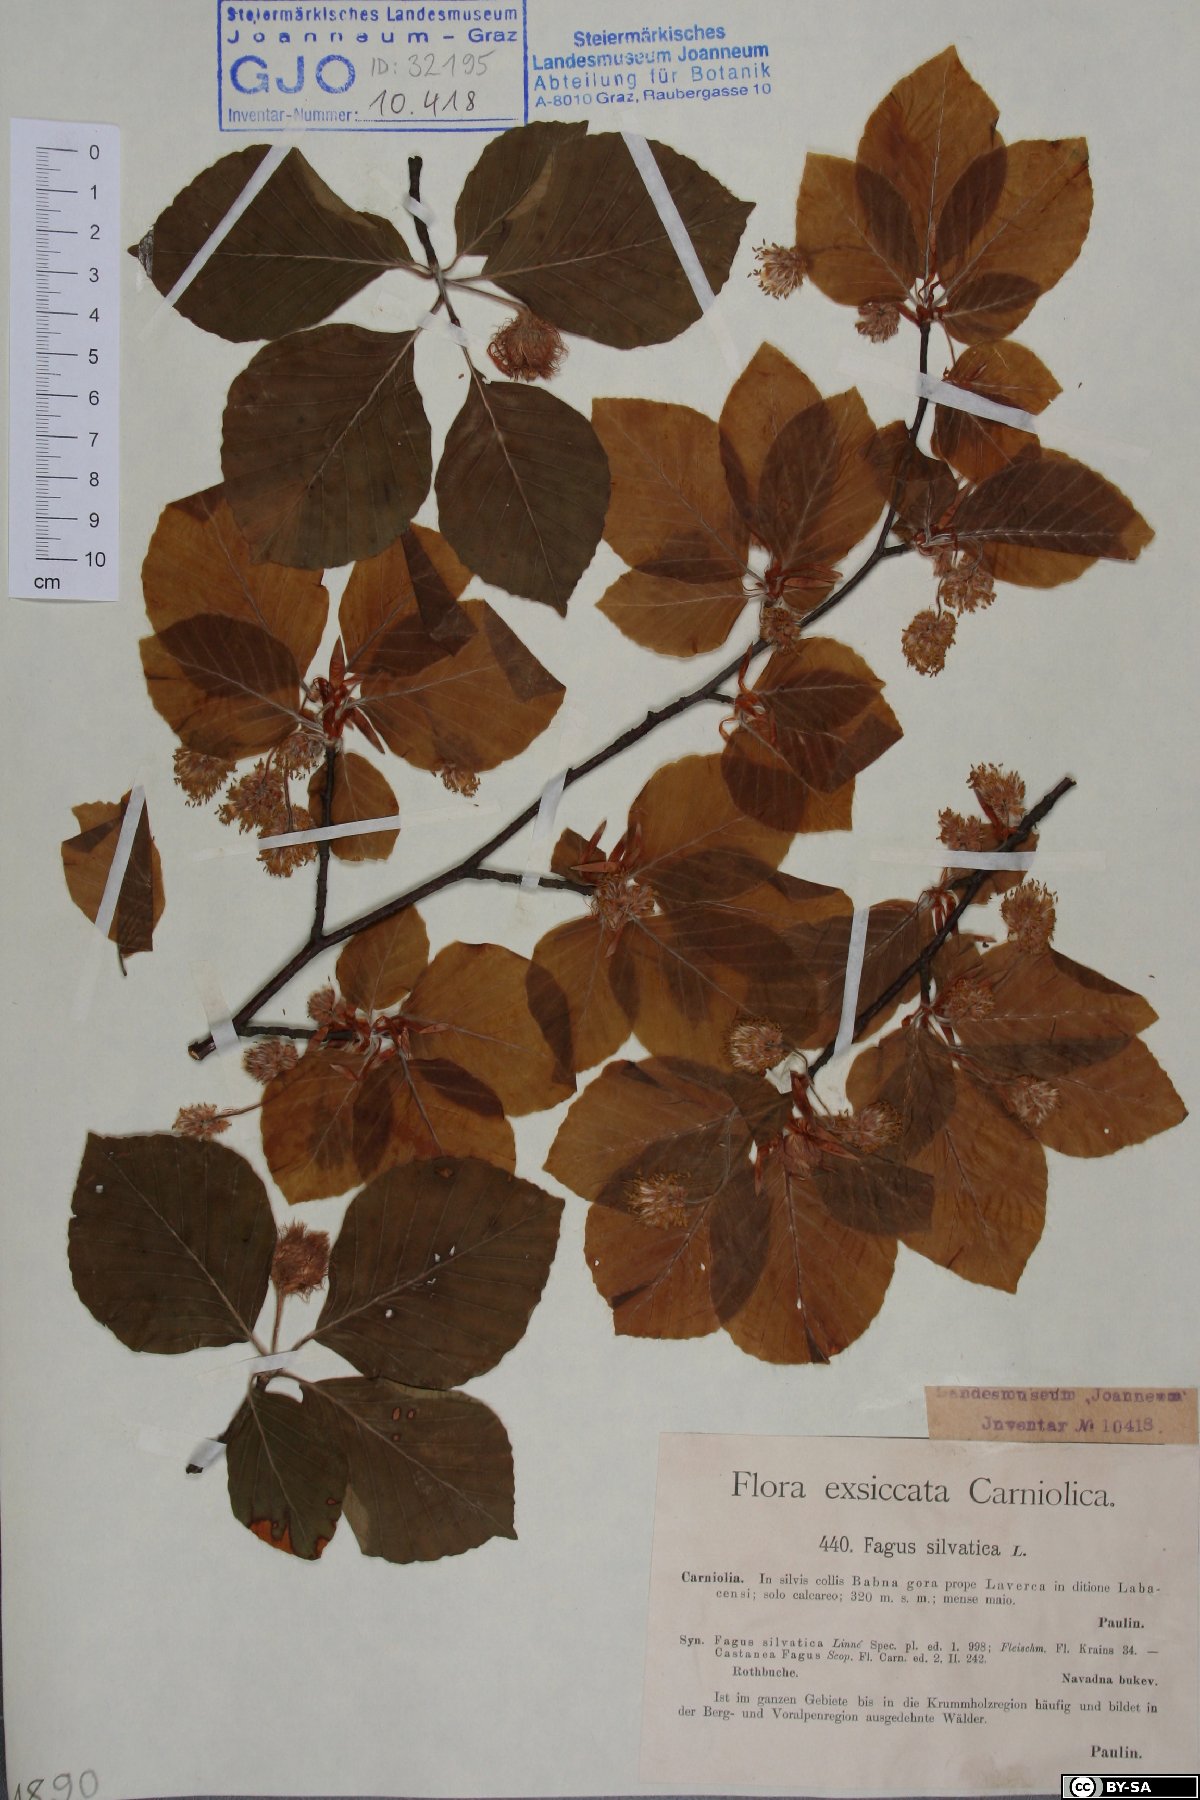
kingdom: Plantae
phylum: Tracheophyta
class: Magnoliopsida
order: Fagales
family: Fagaceae
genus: Fagus
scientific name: Fagus sylvatica
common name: Beech
